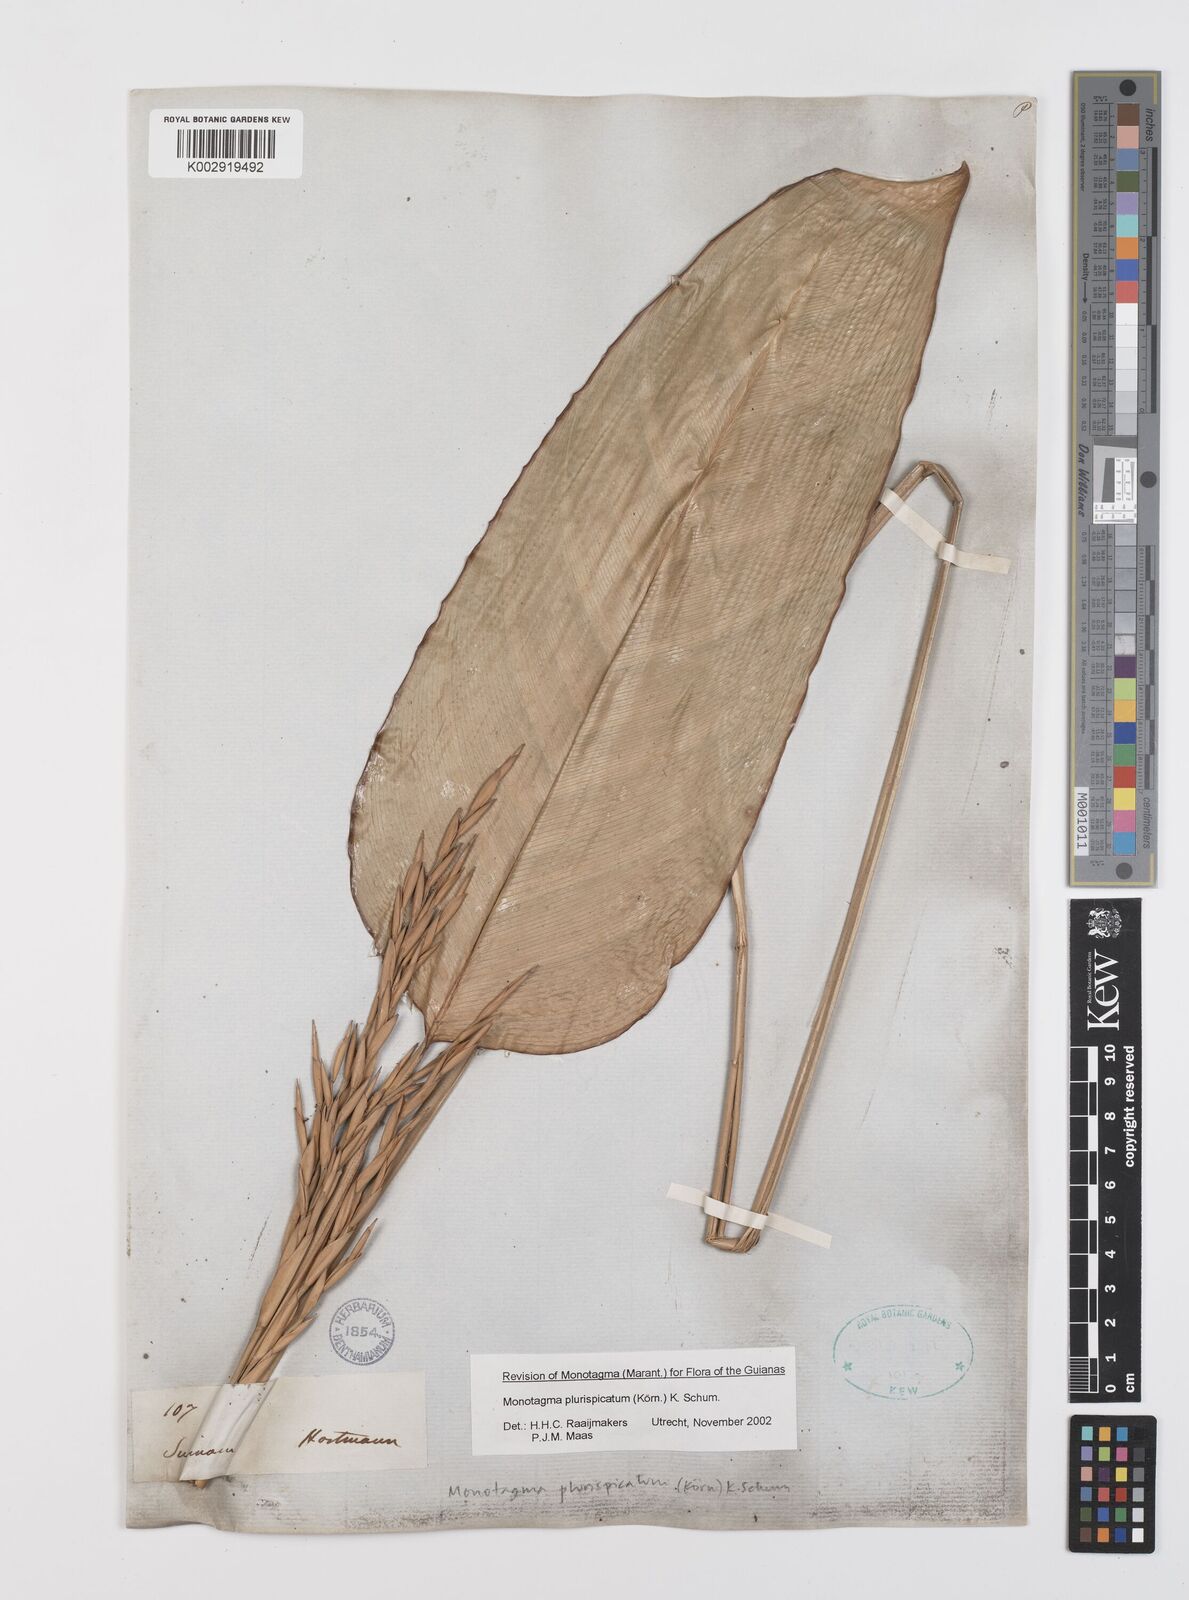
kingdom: Plantae
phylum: Tracheophyta
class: Liliopsida
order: Zingiberales
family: Marantaceae
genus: Monotagma
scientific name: Monotagma plurispicatum
